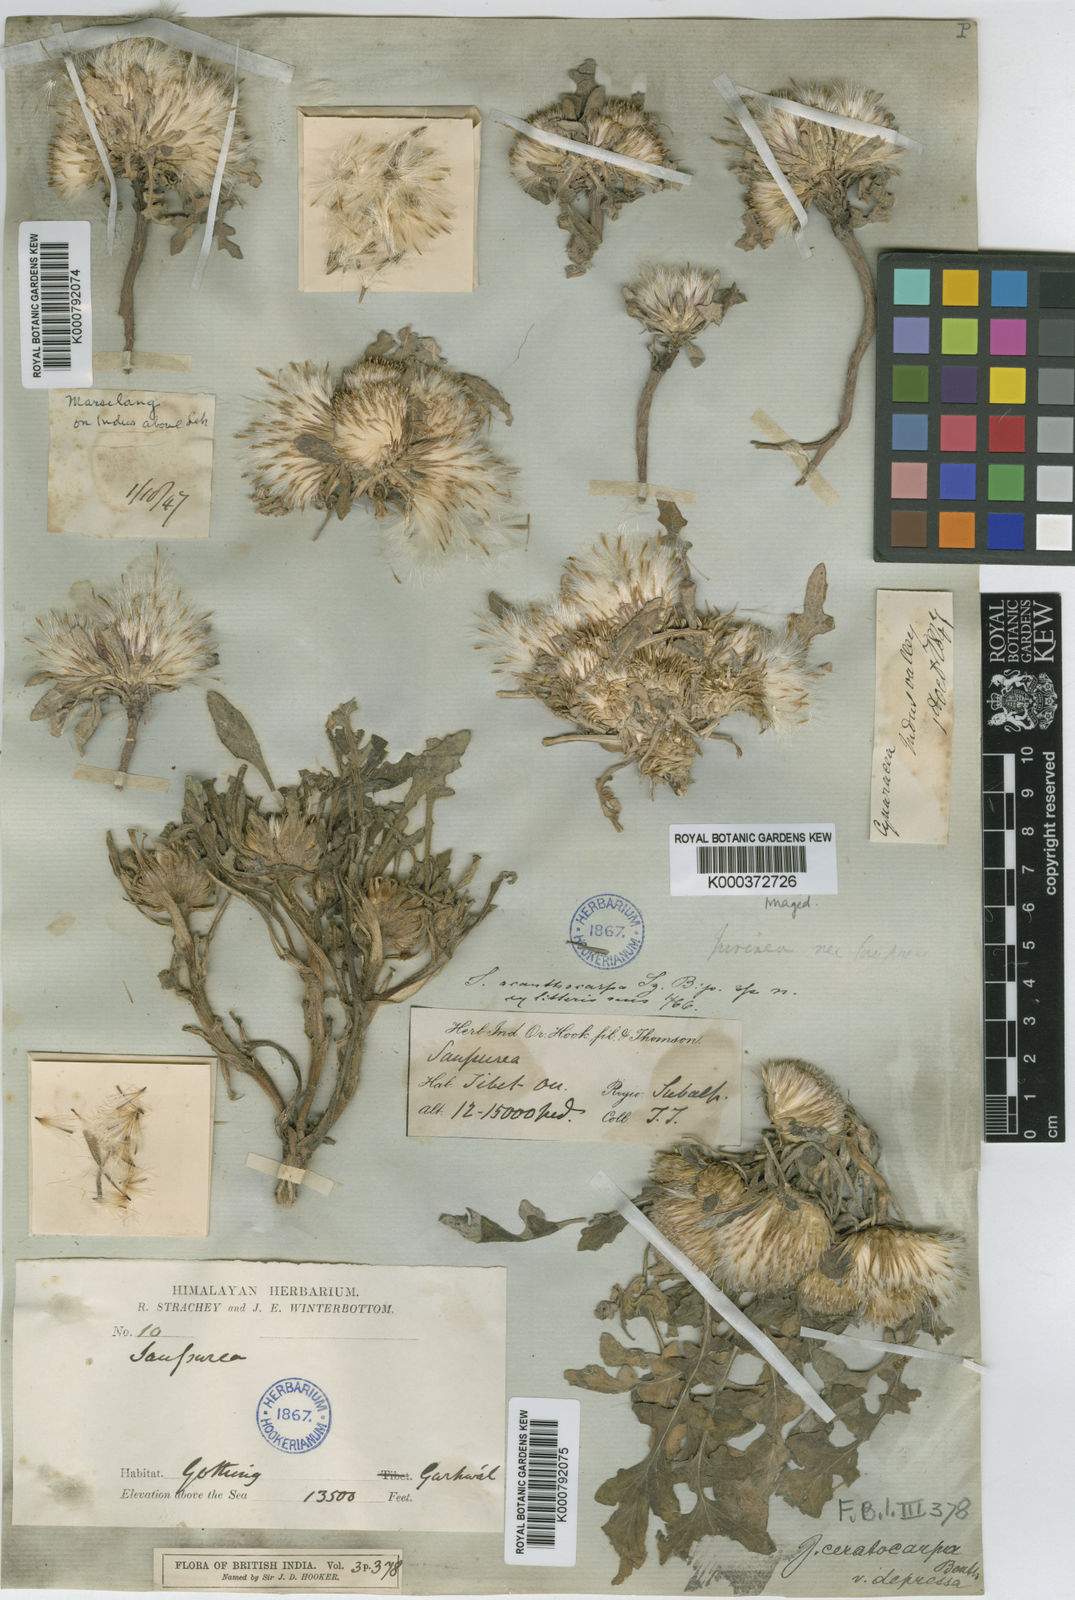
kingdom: Plantae
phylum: Tracheophyta
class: Magnoliopsida
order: Asterales
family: Asteraceae
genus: Jurinea
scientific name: Jurinea ceratocarpa
